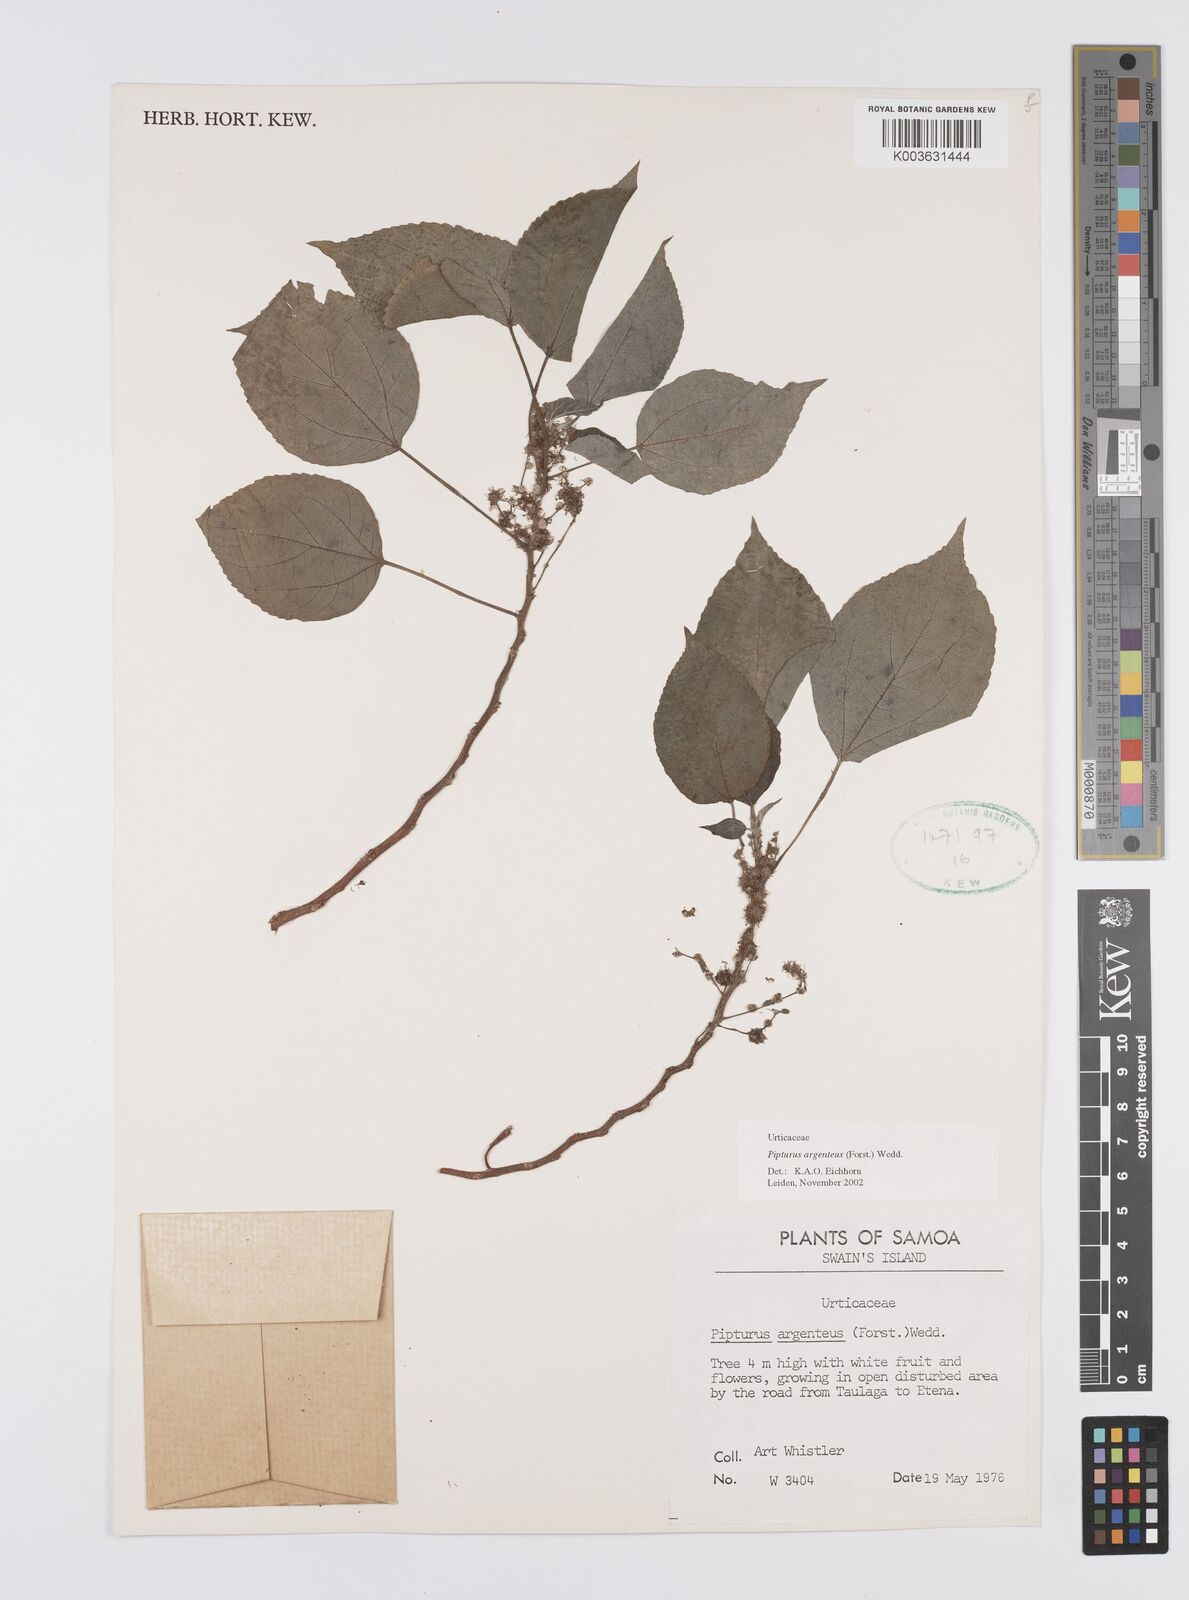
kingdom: Plantae
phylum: Tracheophyta
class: Magnoliopsida
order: Rosales
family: Urticaceae
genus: Pipturus
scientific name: Pipturus argenteus
